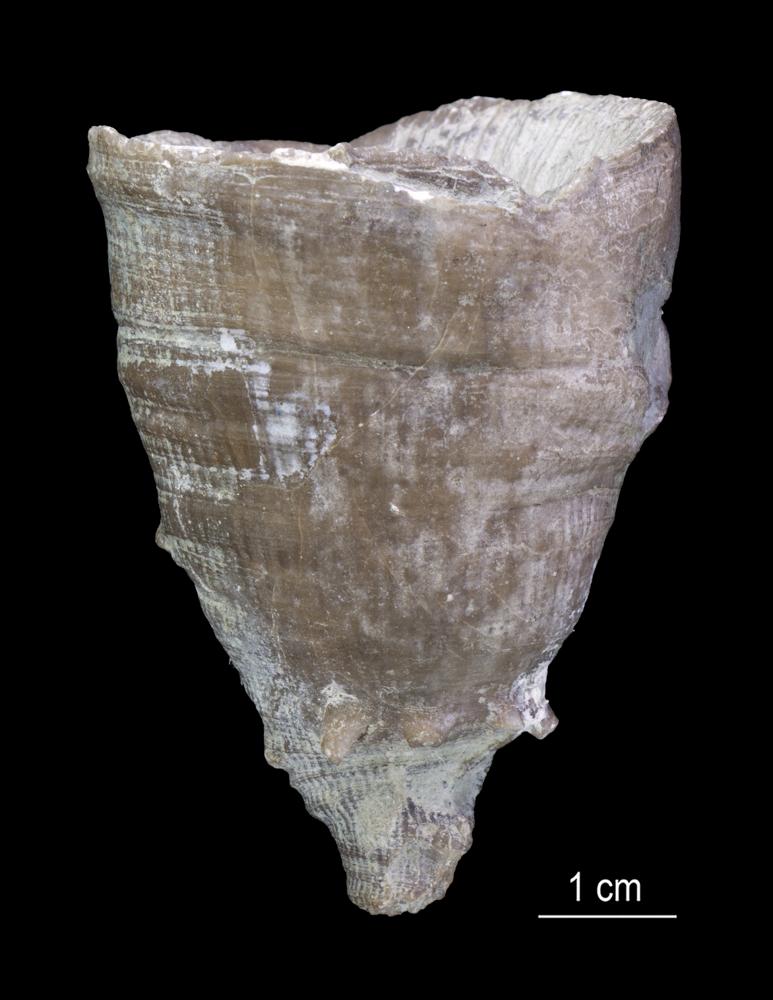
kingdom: Animalia
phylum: Cnidaria
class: Anthozoa
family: Ketophyllidae
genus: Omphyma
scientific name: Omphyma
